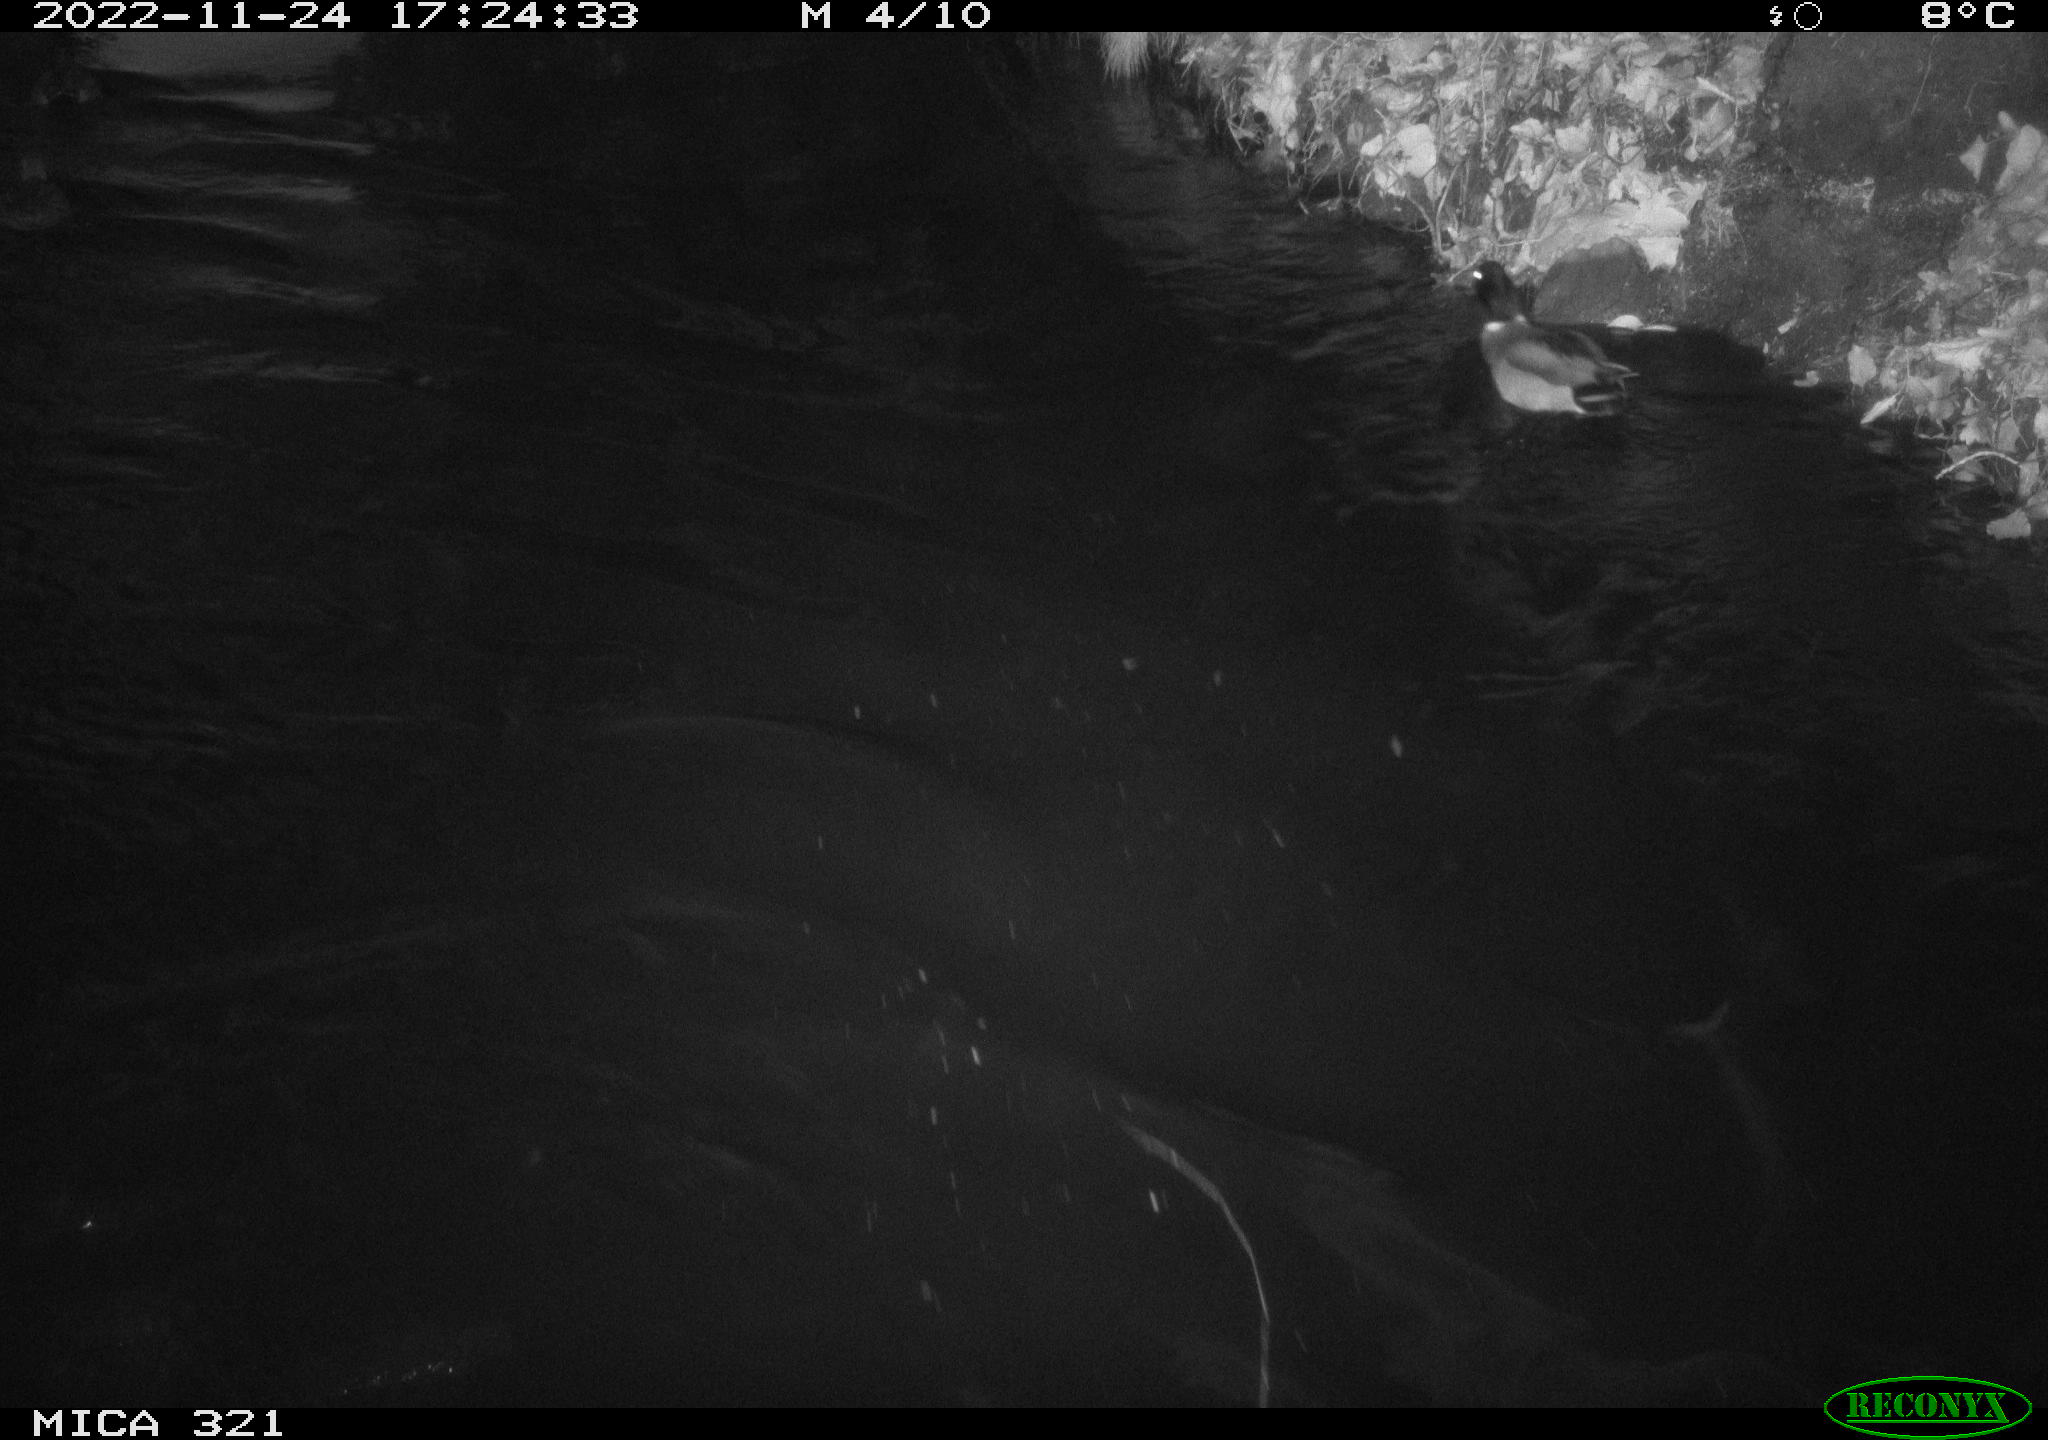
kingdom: Animalia
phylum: Chordata
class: Aves
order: Anseriformes
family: Anatidae
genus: Anas
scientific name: Anas
